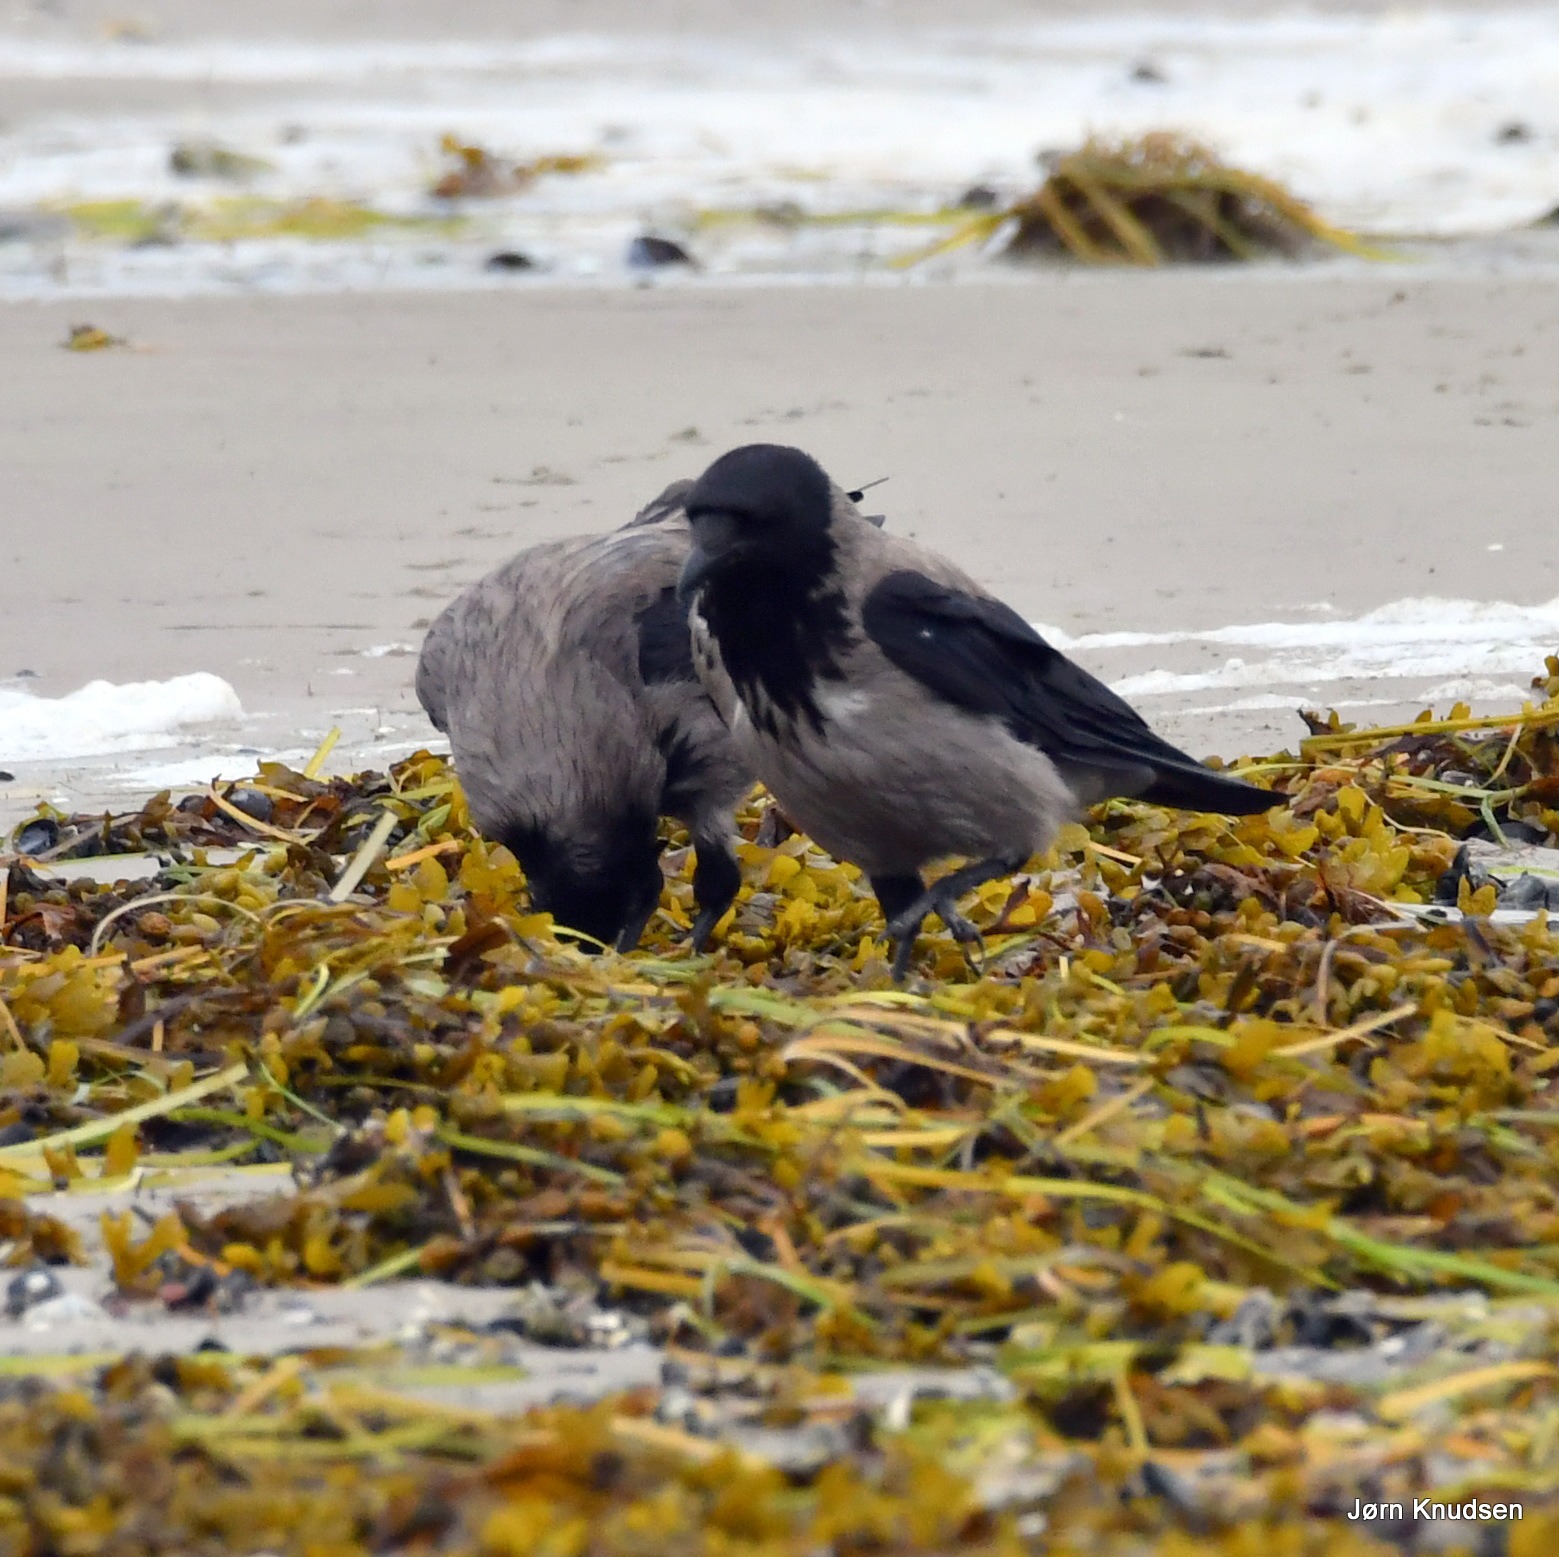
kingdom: Animalia
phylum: Chordata
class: Aves
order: Passeriformes
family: Corvidae
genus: Corvus
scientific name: Corvus cornix
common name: Gråkrage
